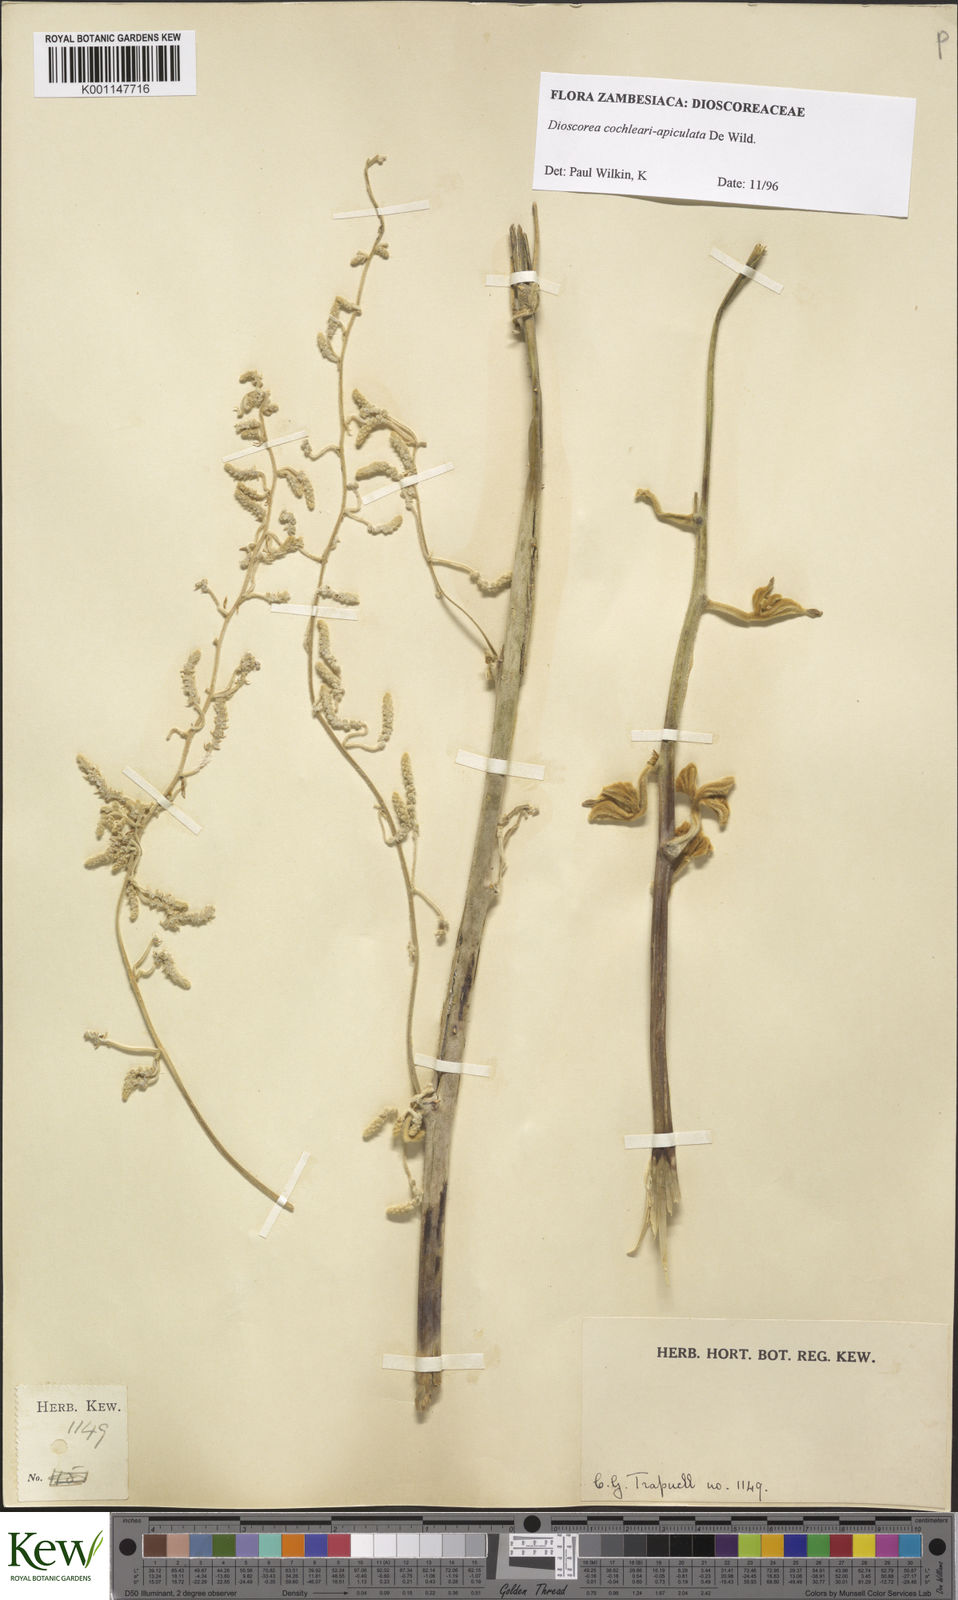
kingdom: Plantae
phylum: Tracheophyta
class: Liliopsida
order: Dioscoreales
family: Dioscoreaceae
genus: Dioscorea
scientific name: Dioscorea cochleariapiculata
